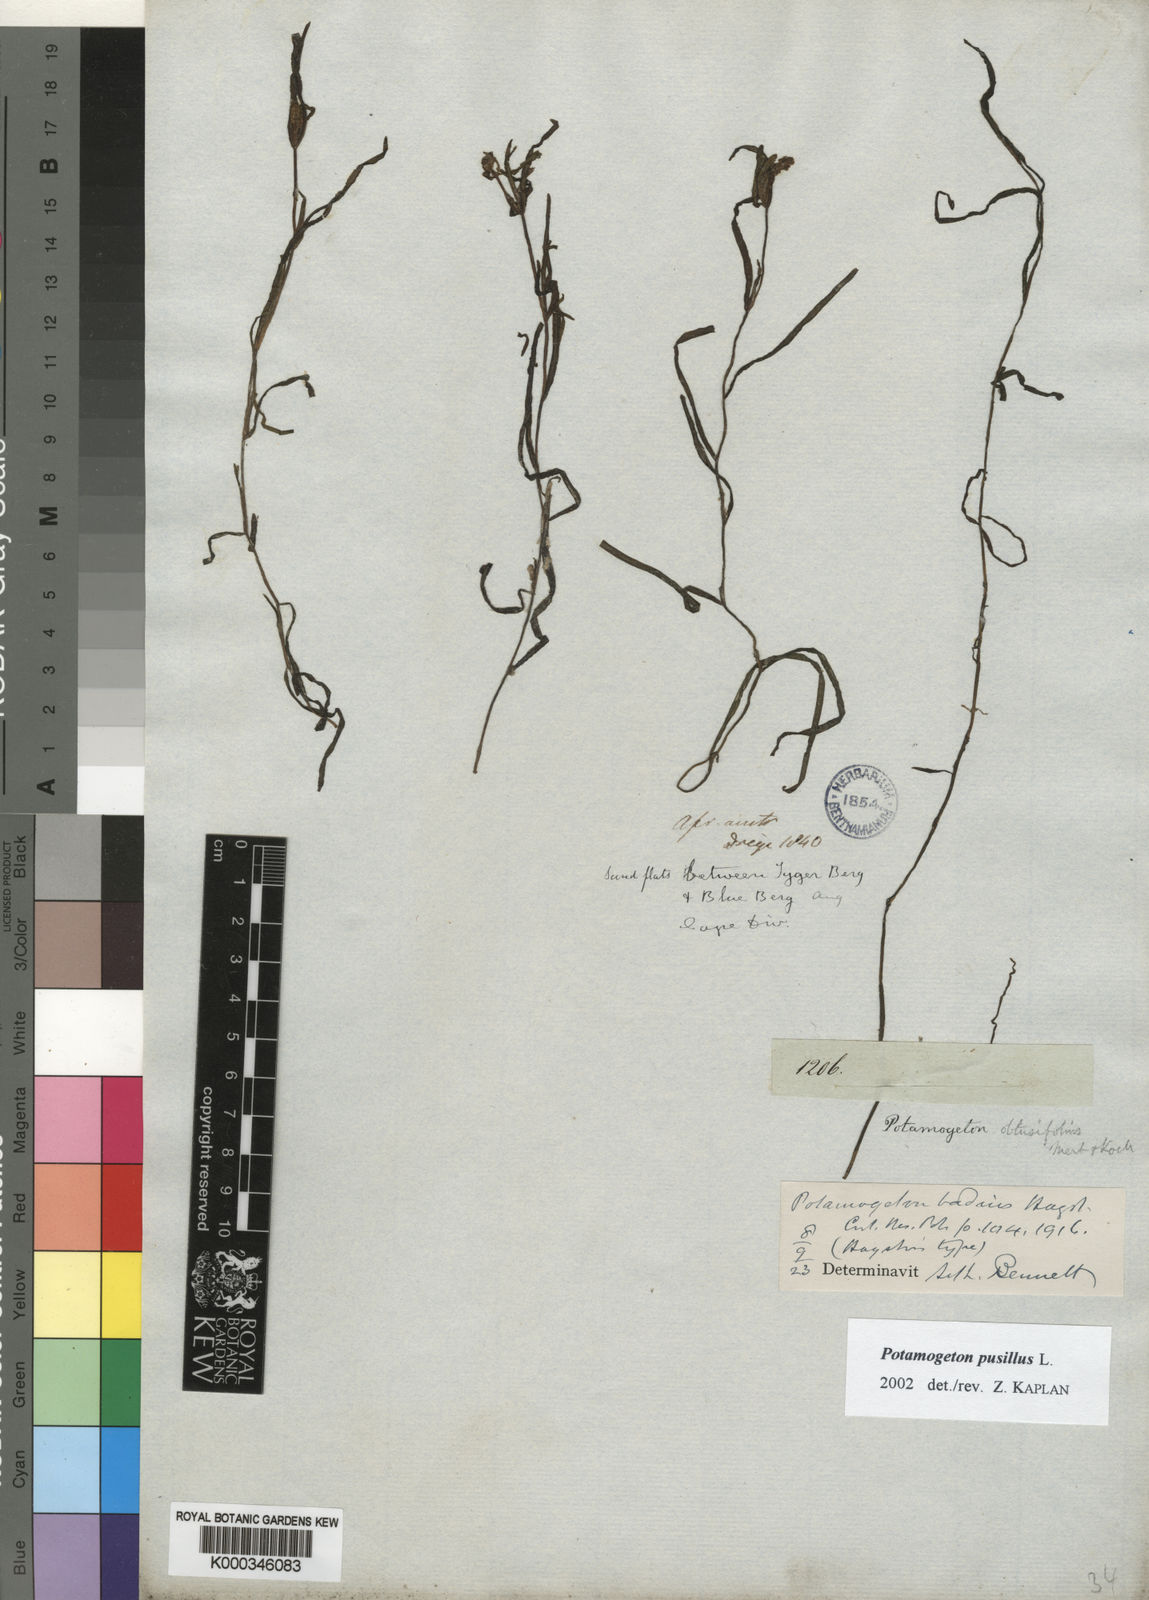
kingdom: Plantae
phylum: Tracheophyta
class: Liliopsida
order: Alismatales
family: Potamogetonaceae
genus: Potamogeton
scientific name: Potamogeton pusillus
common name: Lesser pondweed
